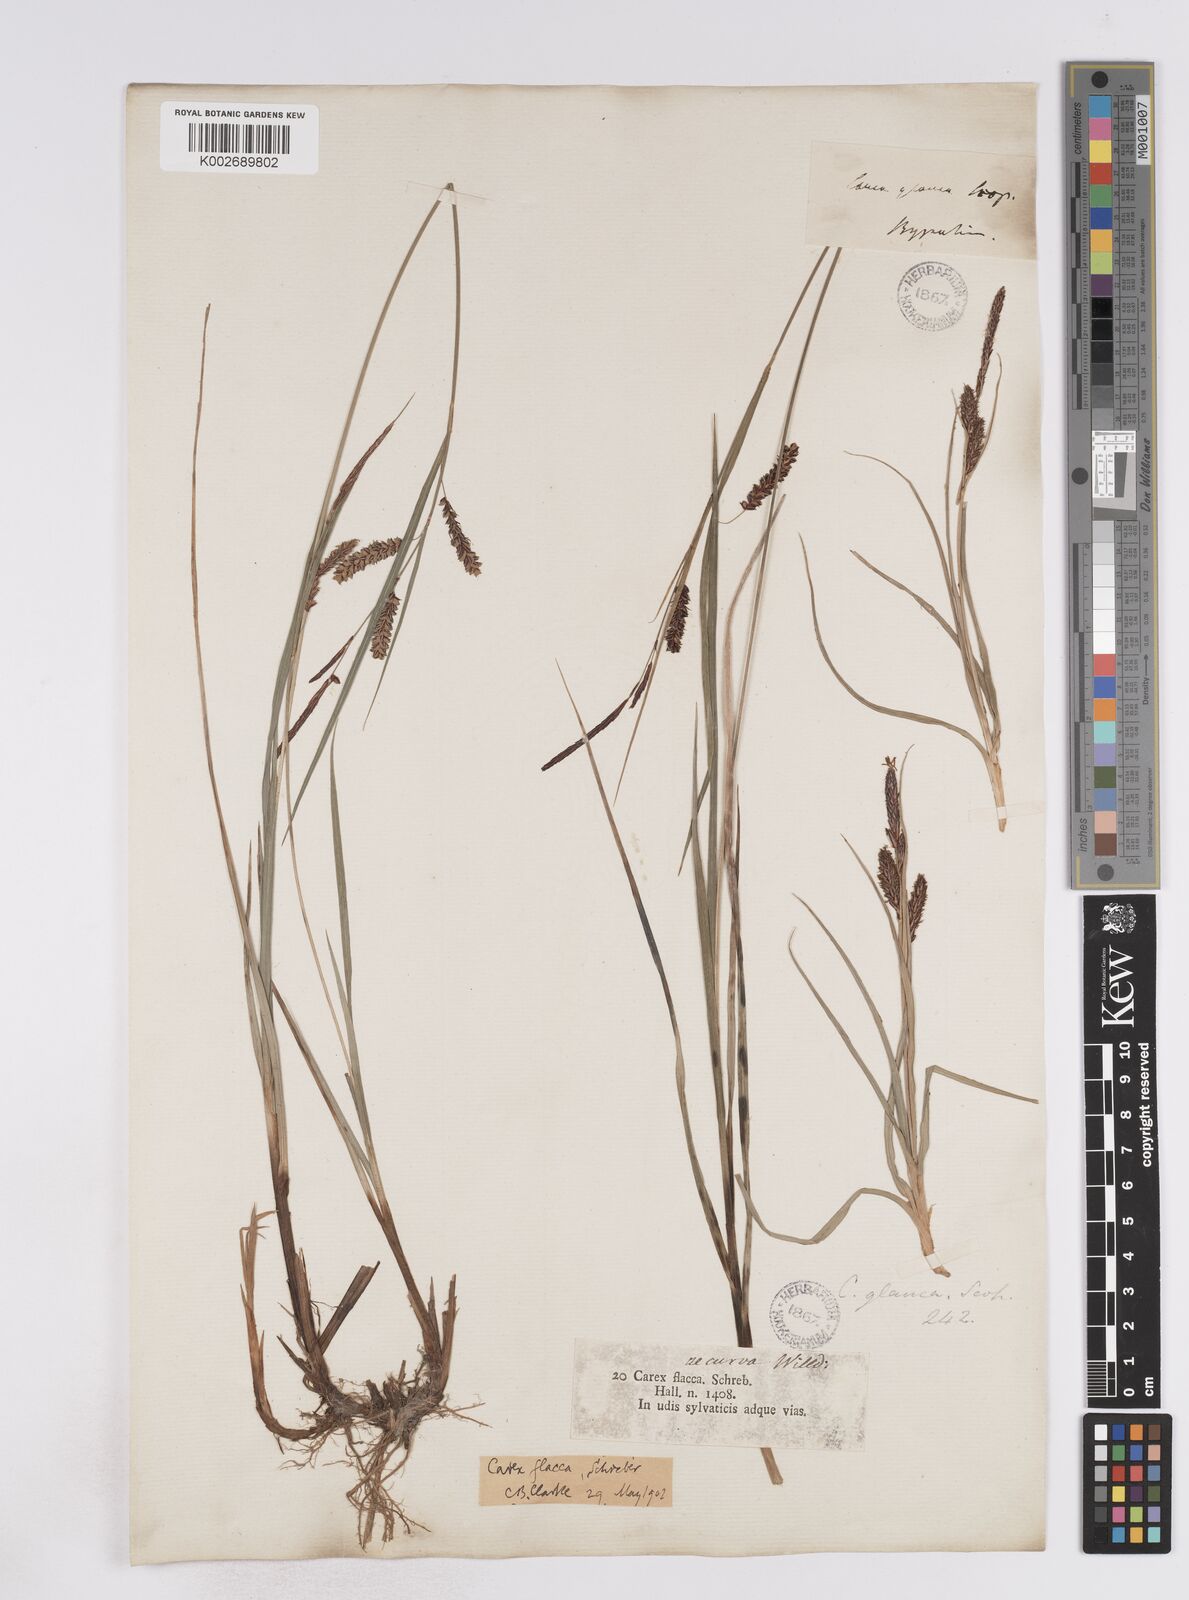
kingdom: Plantae
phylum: Tracheophyta
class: Liliopsida
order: Poales
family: Cyperaceae
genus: Carex
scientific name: Carex flacca
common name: Glaucous sedge
